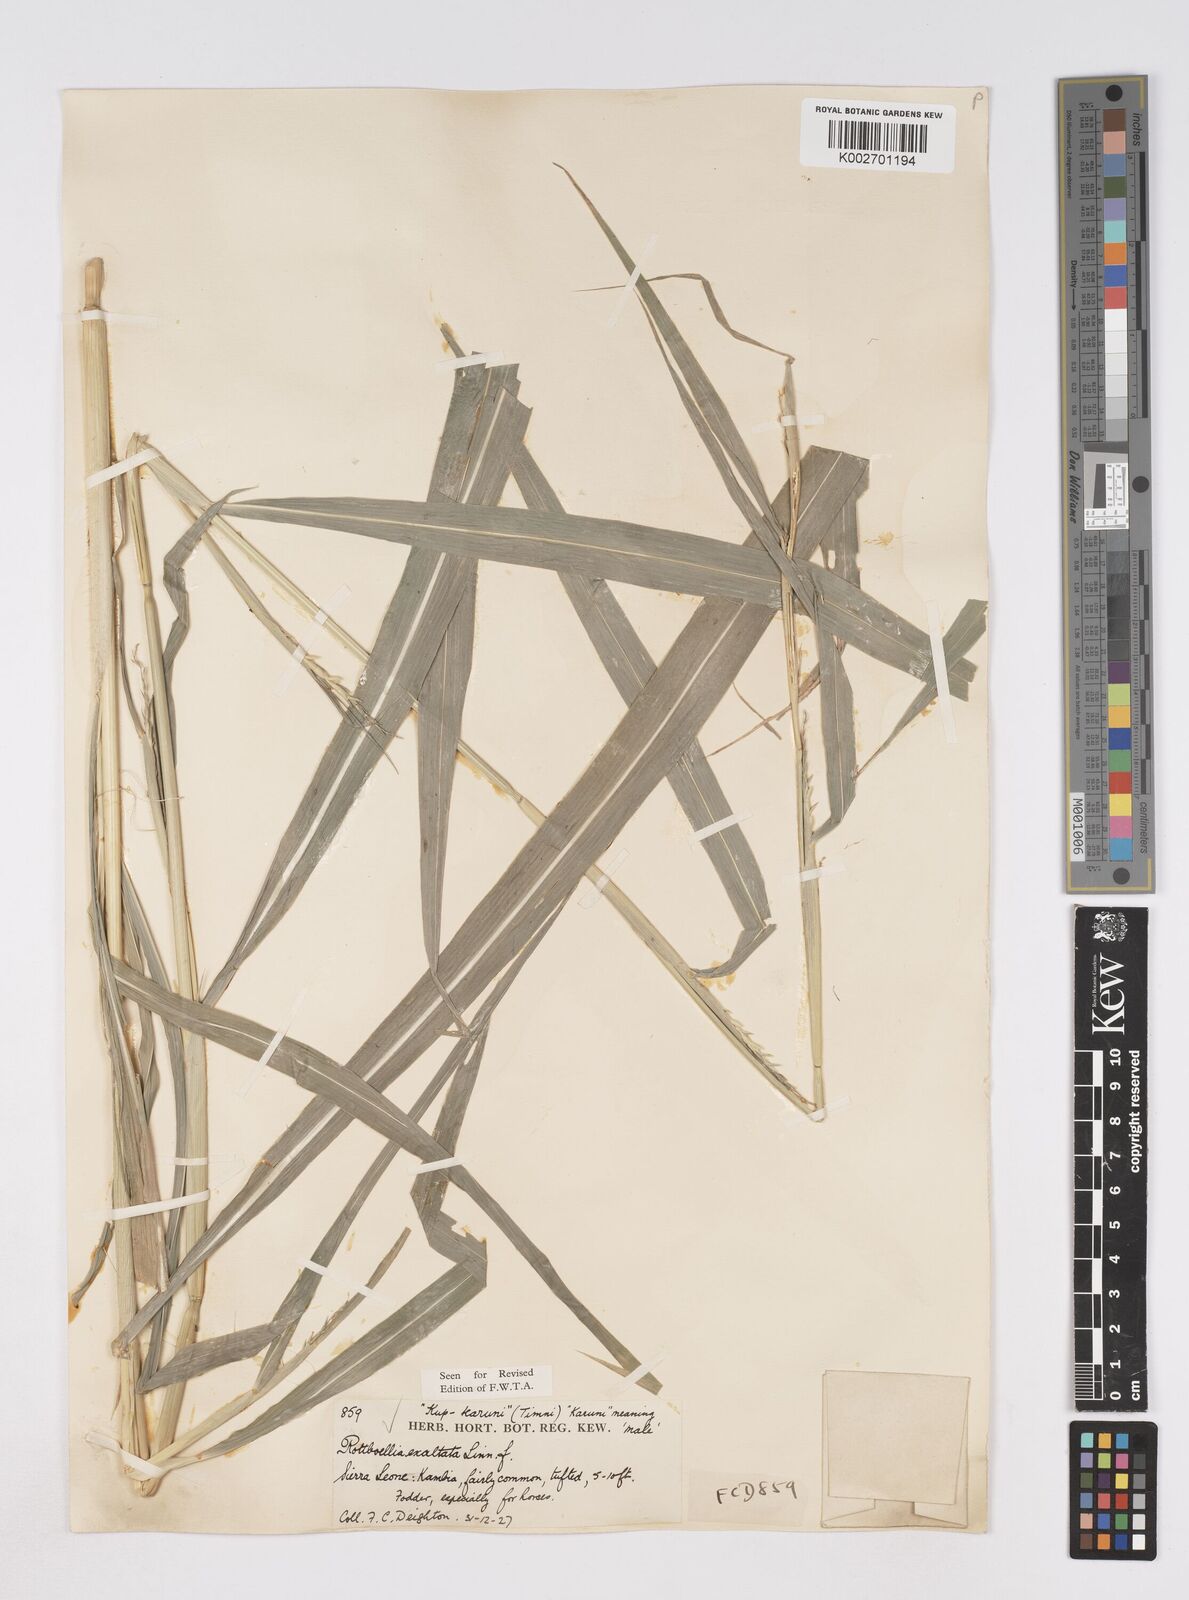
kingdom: Plantae
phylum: Tracheophyta
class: Liliopsida
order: Poales
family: Poaceae
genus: Ophiuros
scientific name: Ophiuros exaltatus
